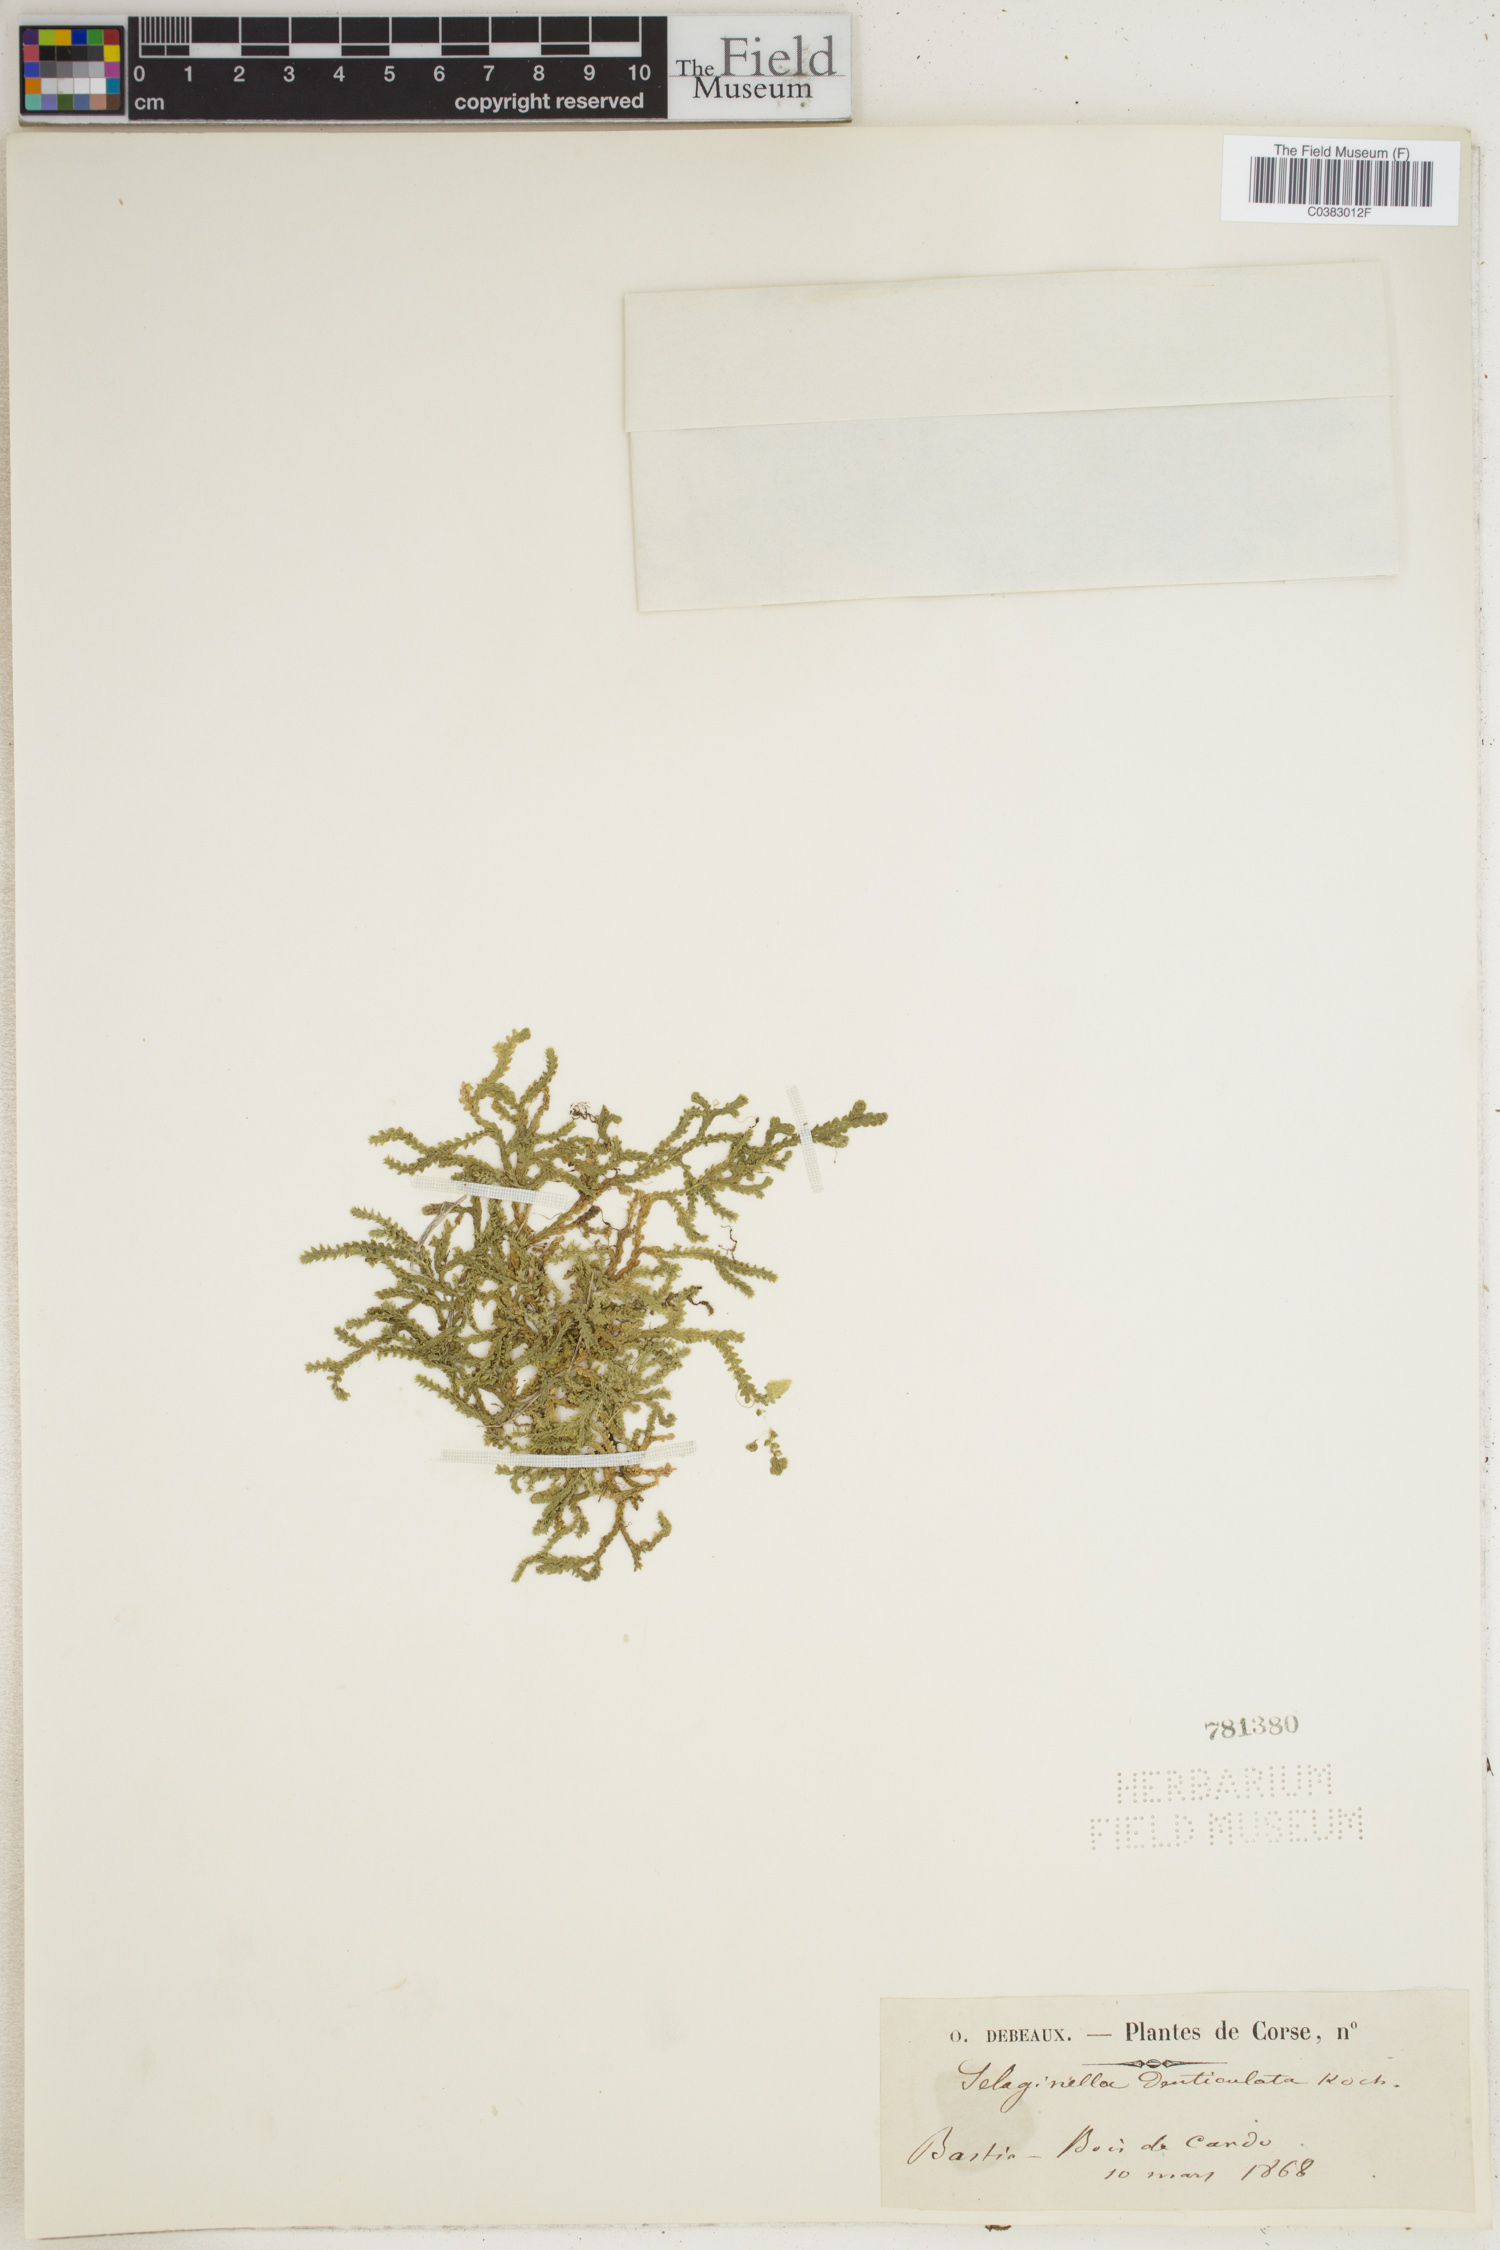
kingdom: Plantae
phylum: Tracheophyta
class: Lycopodiopsida
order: Selaginellales
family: Selaginellaceae
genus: Selaginella
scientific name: Selaginella denticulata
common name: Toothed-leaved clubmoss
